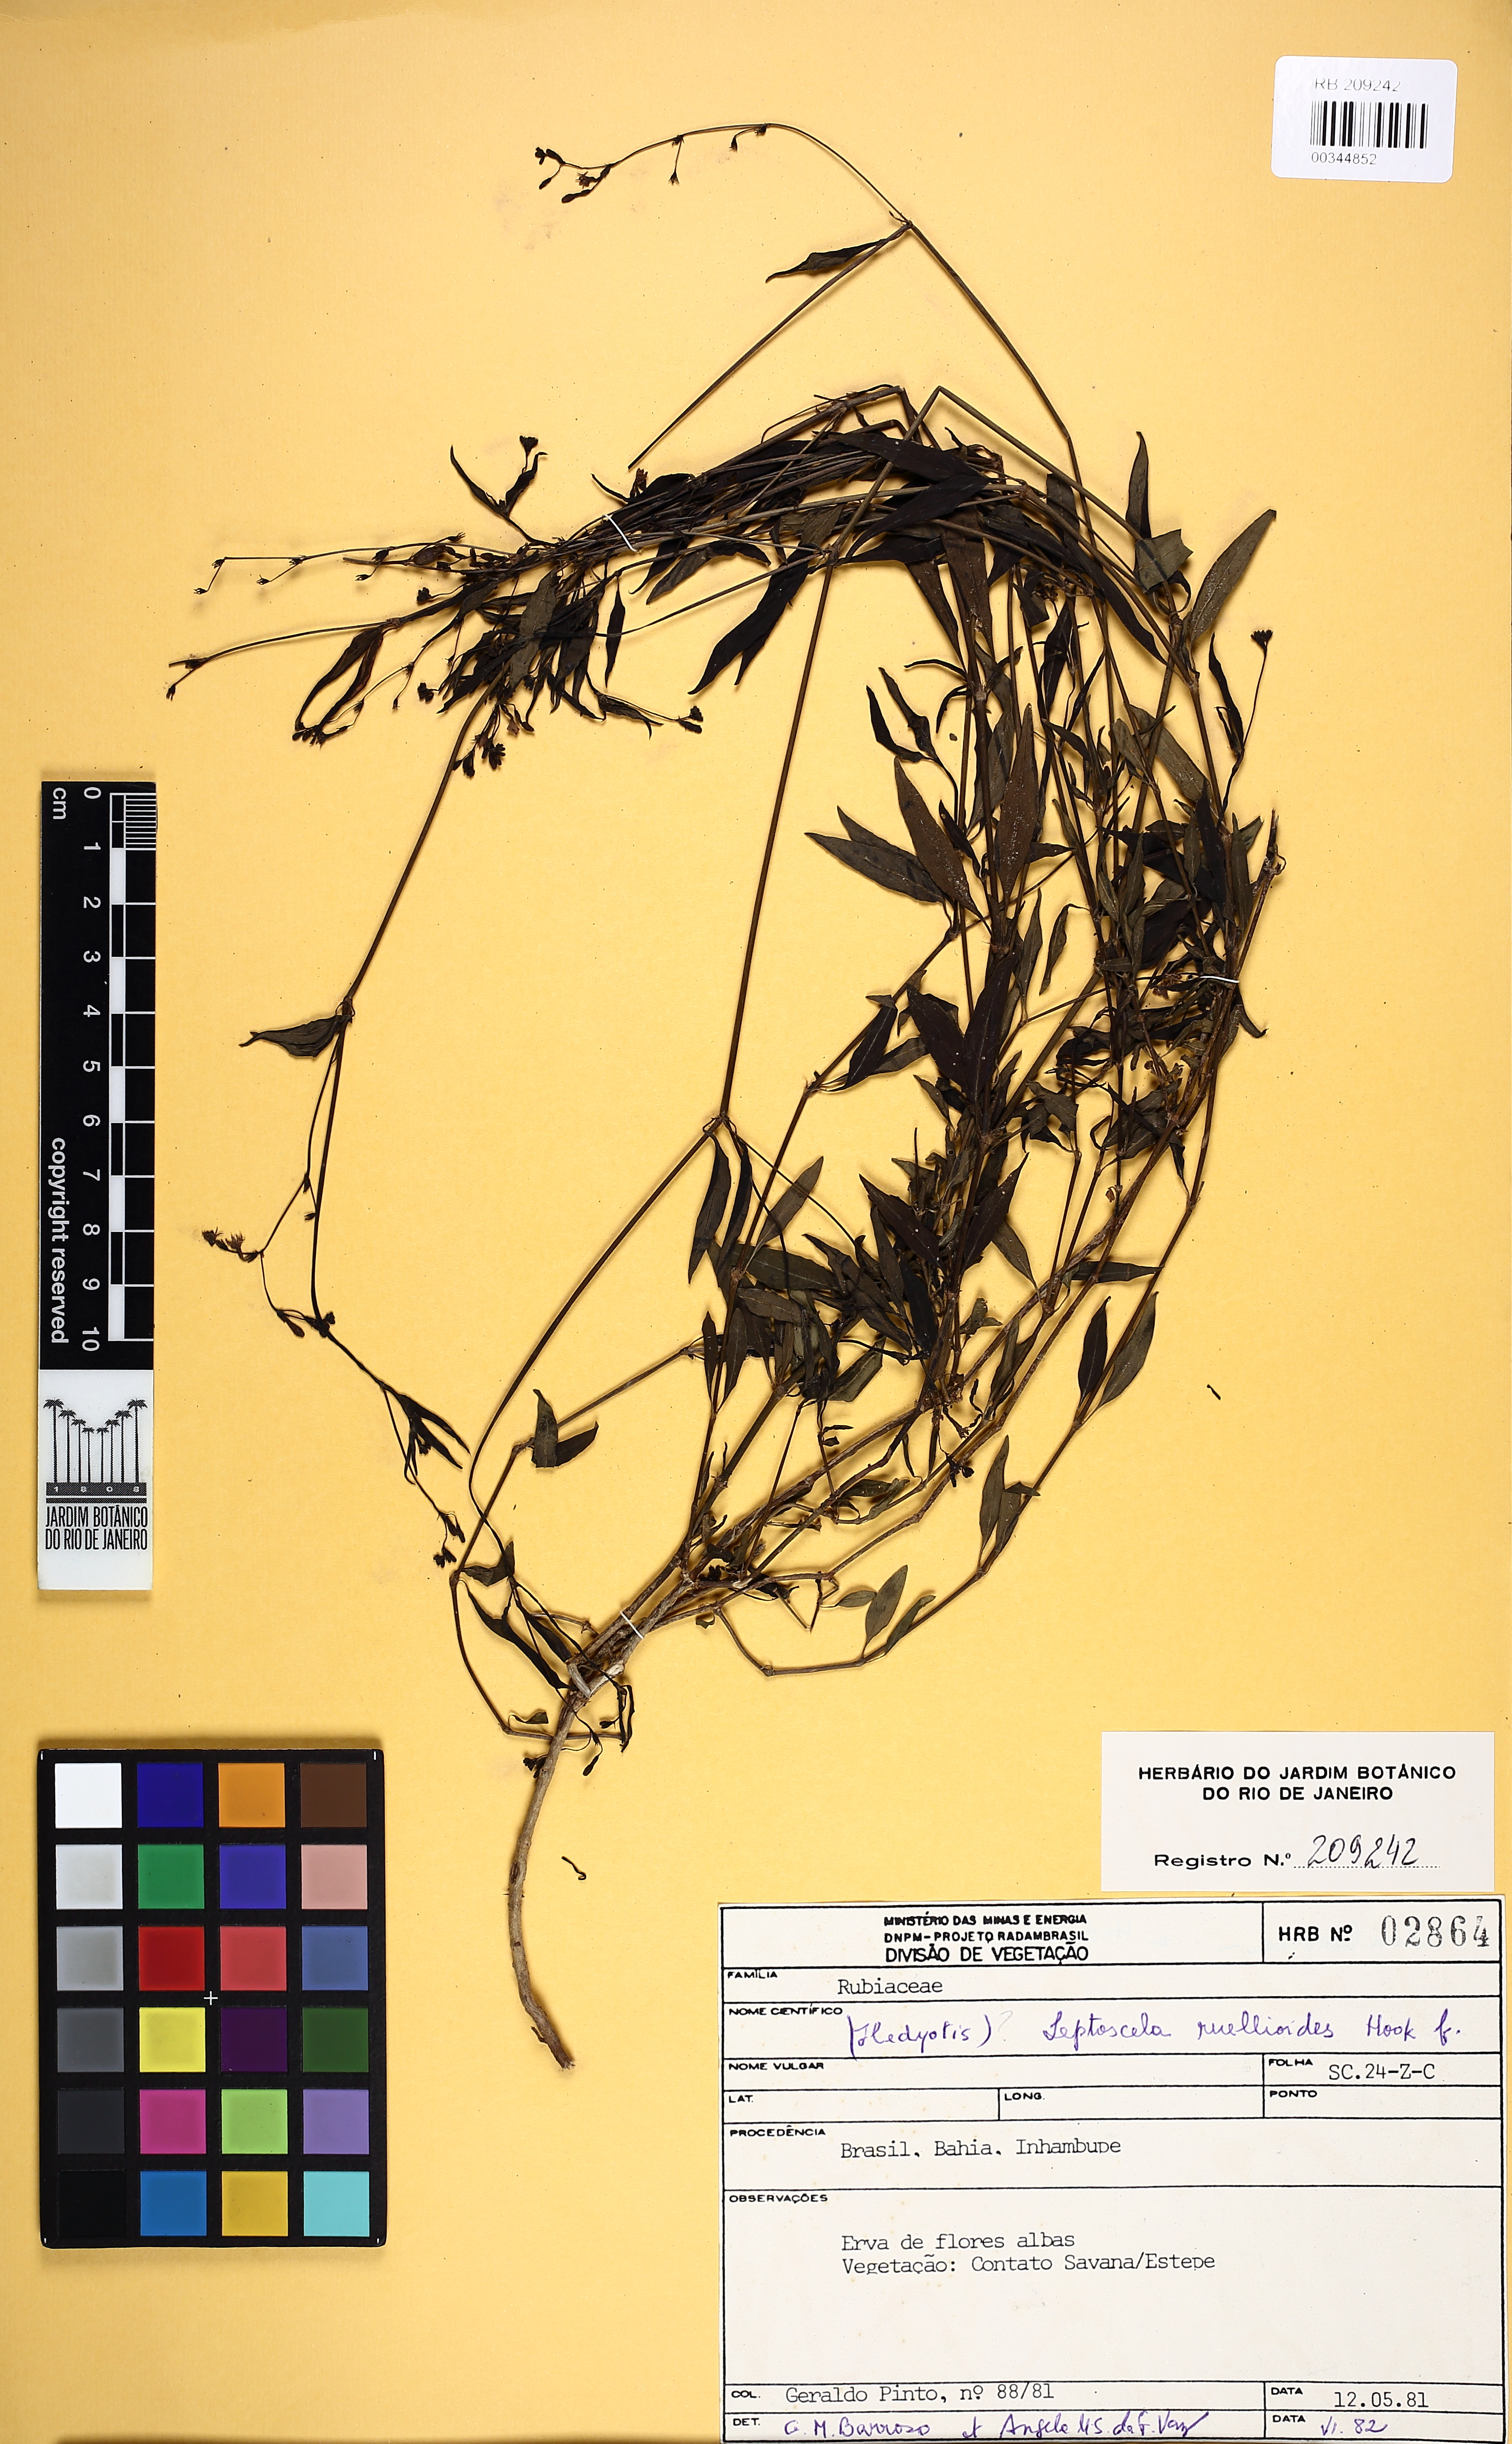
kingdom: Plantae
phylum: Tracheophyta
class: Magnoliopsida
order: Gentianales
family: Rubiaceae
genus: Leptoscela
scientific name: Leptoscela ruellioides
